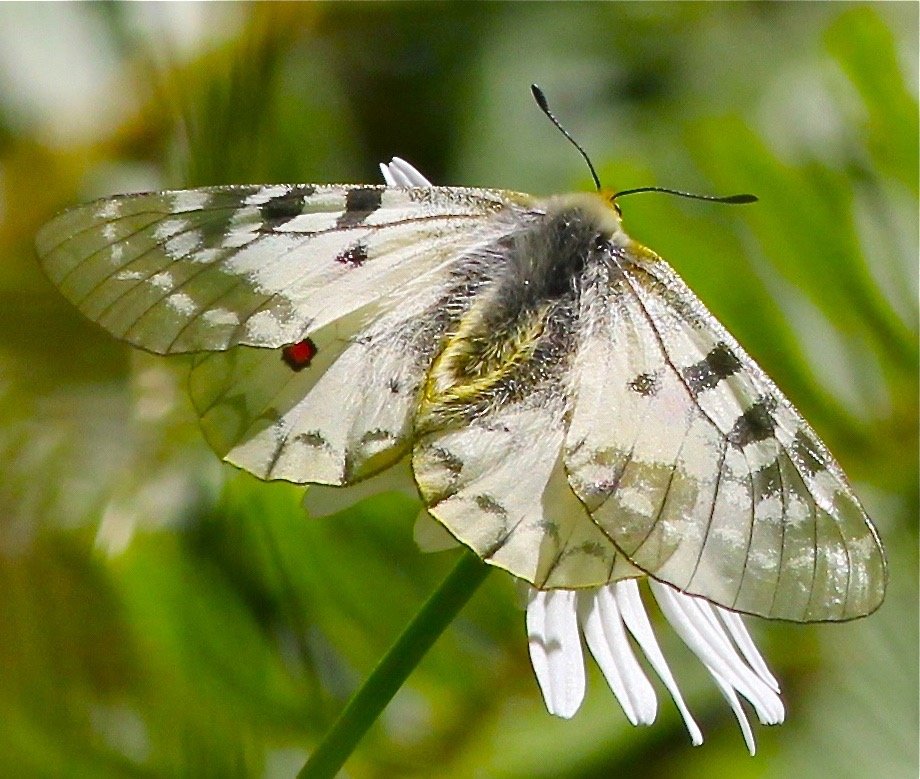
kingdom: Animalia
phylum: Arthropoda
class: Insecta
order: Lepidoptera
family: Papilionidae
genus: Parnassius
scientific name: Parnassius clodius
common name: Clodius Parnassian
